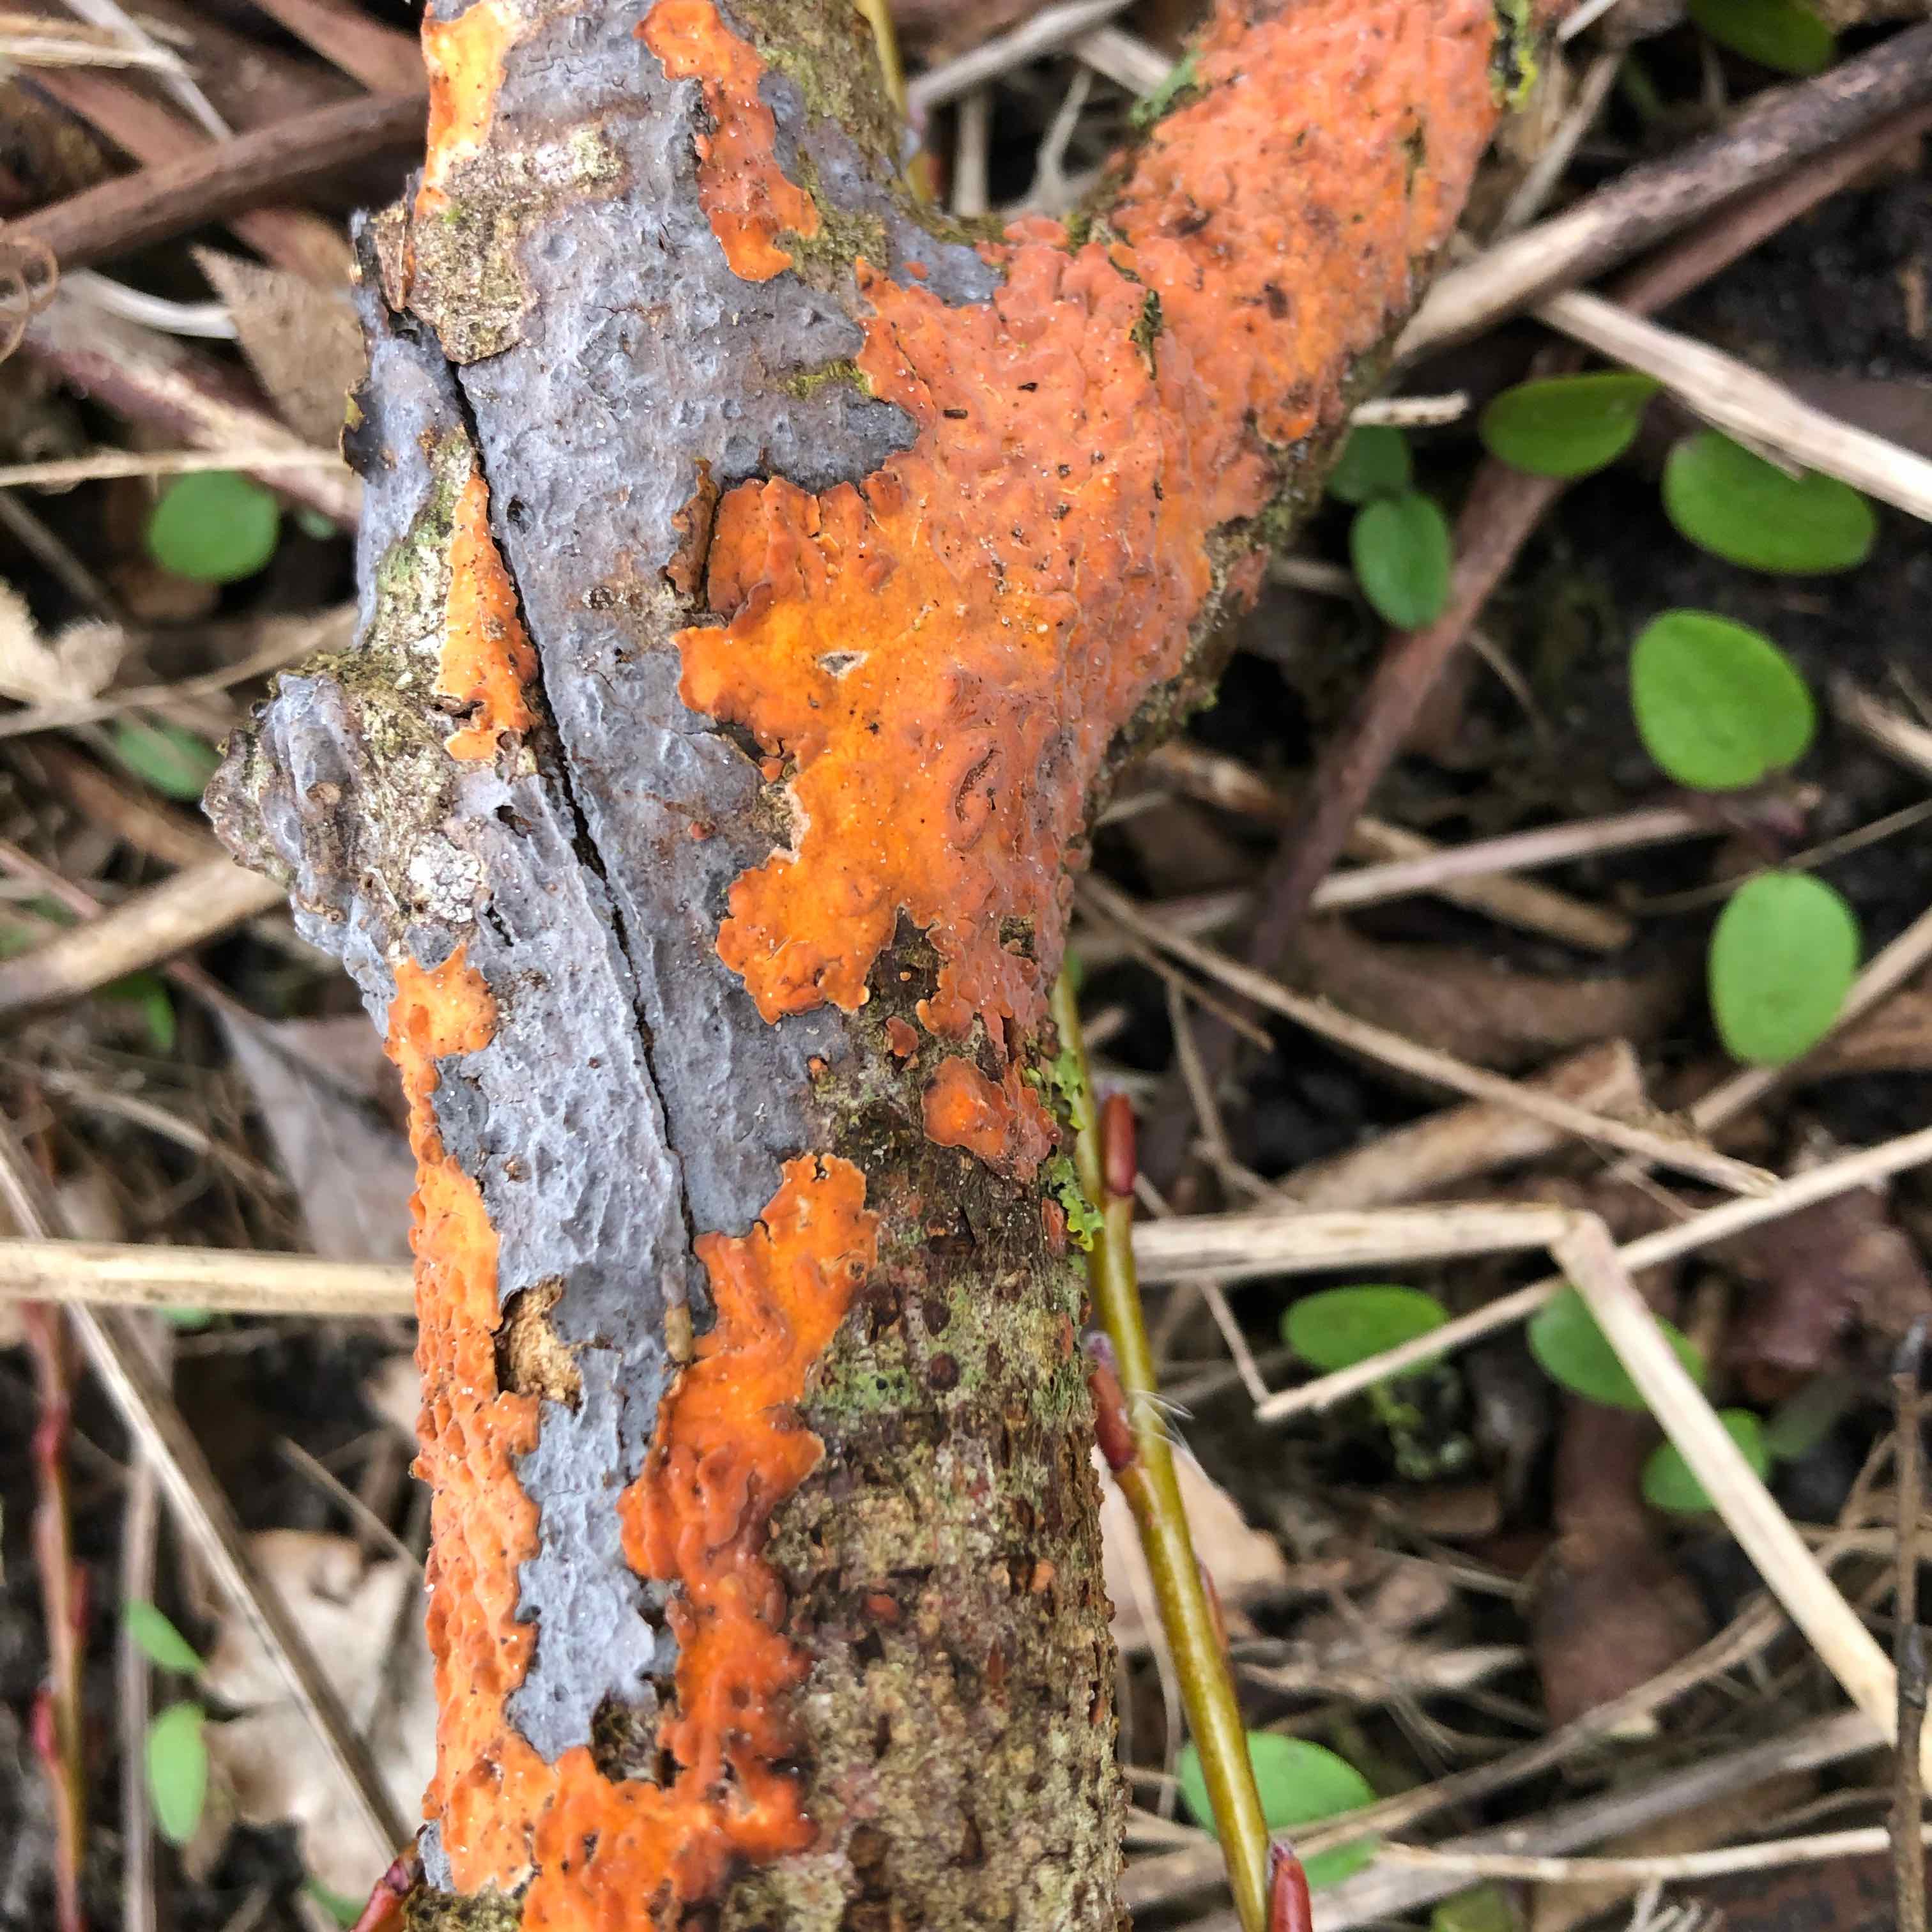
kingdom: Fungi
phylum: Basidiomycota
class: Agaricomycetes
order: Russulales
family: Peniophoraceae
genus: Peniophora
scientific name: Peniophora incarnata
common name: laksefarvet voksskind
